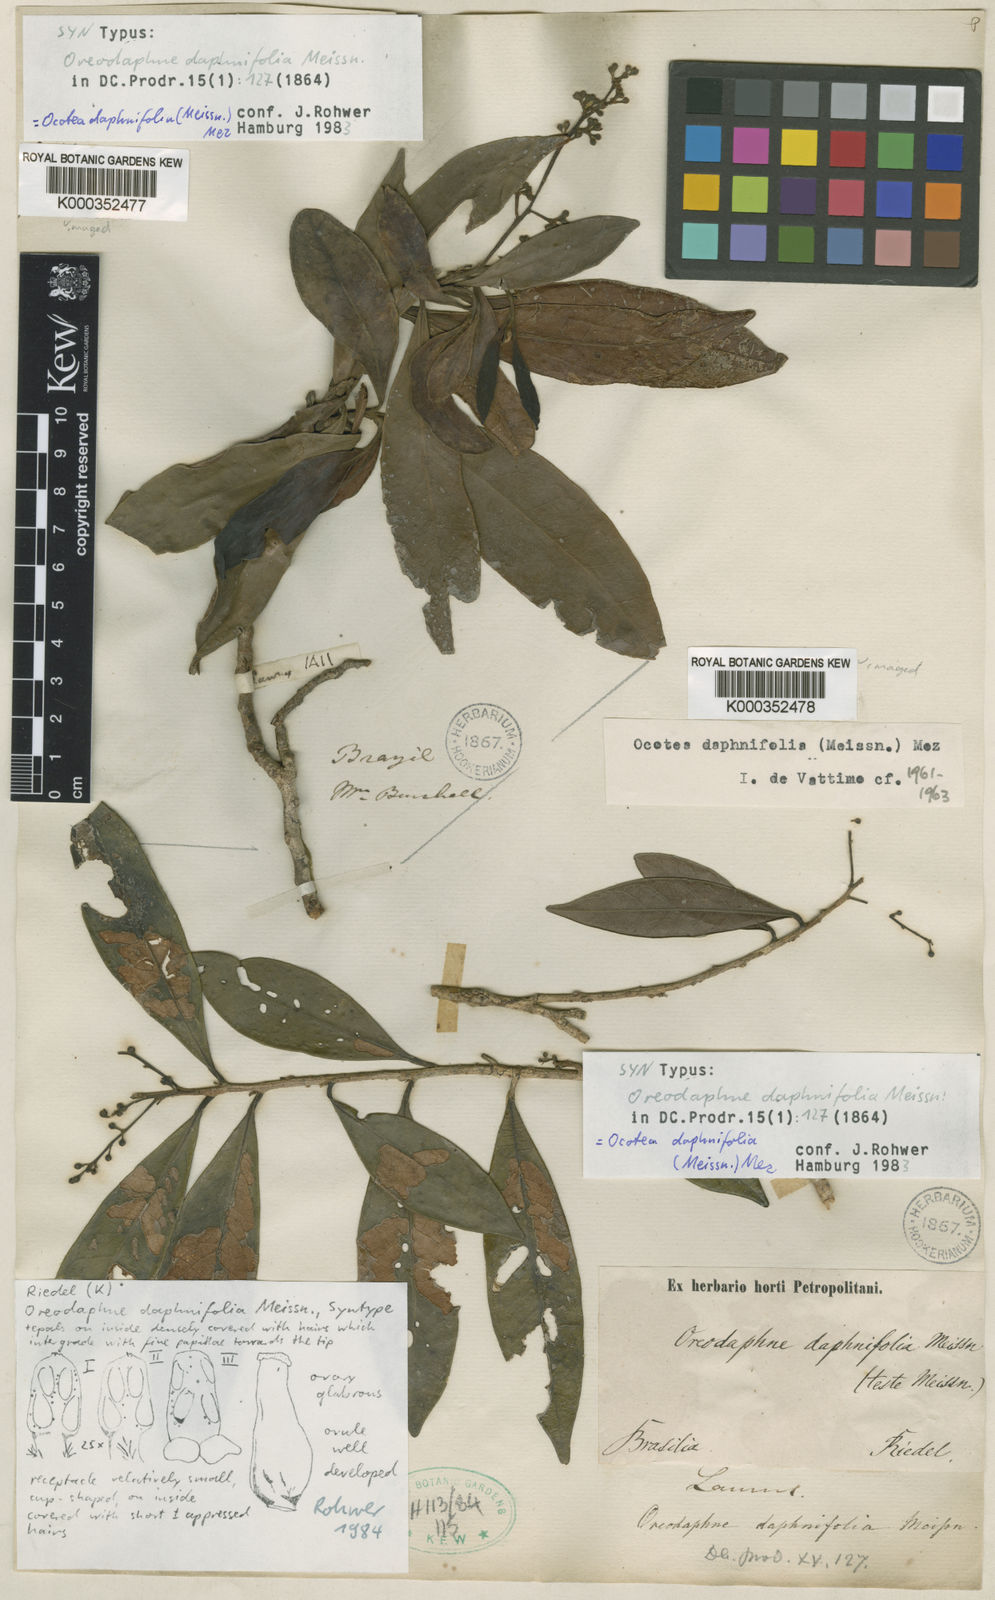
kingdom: Plantae
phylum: Tracheophyta
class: Magnoliopsida
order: Laurales
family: Lauraceae
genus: Ocotea
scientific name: Ocotea daphnifolia
